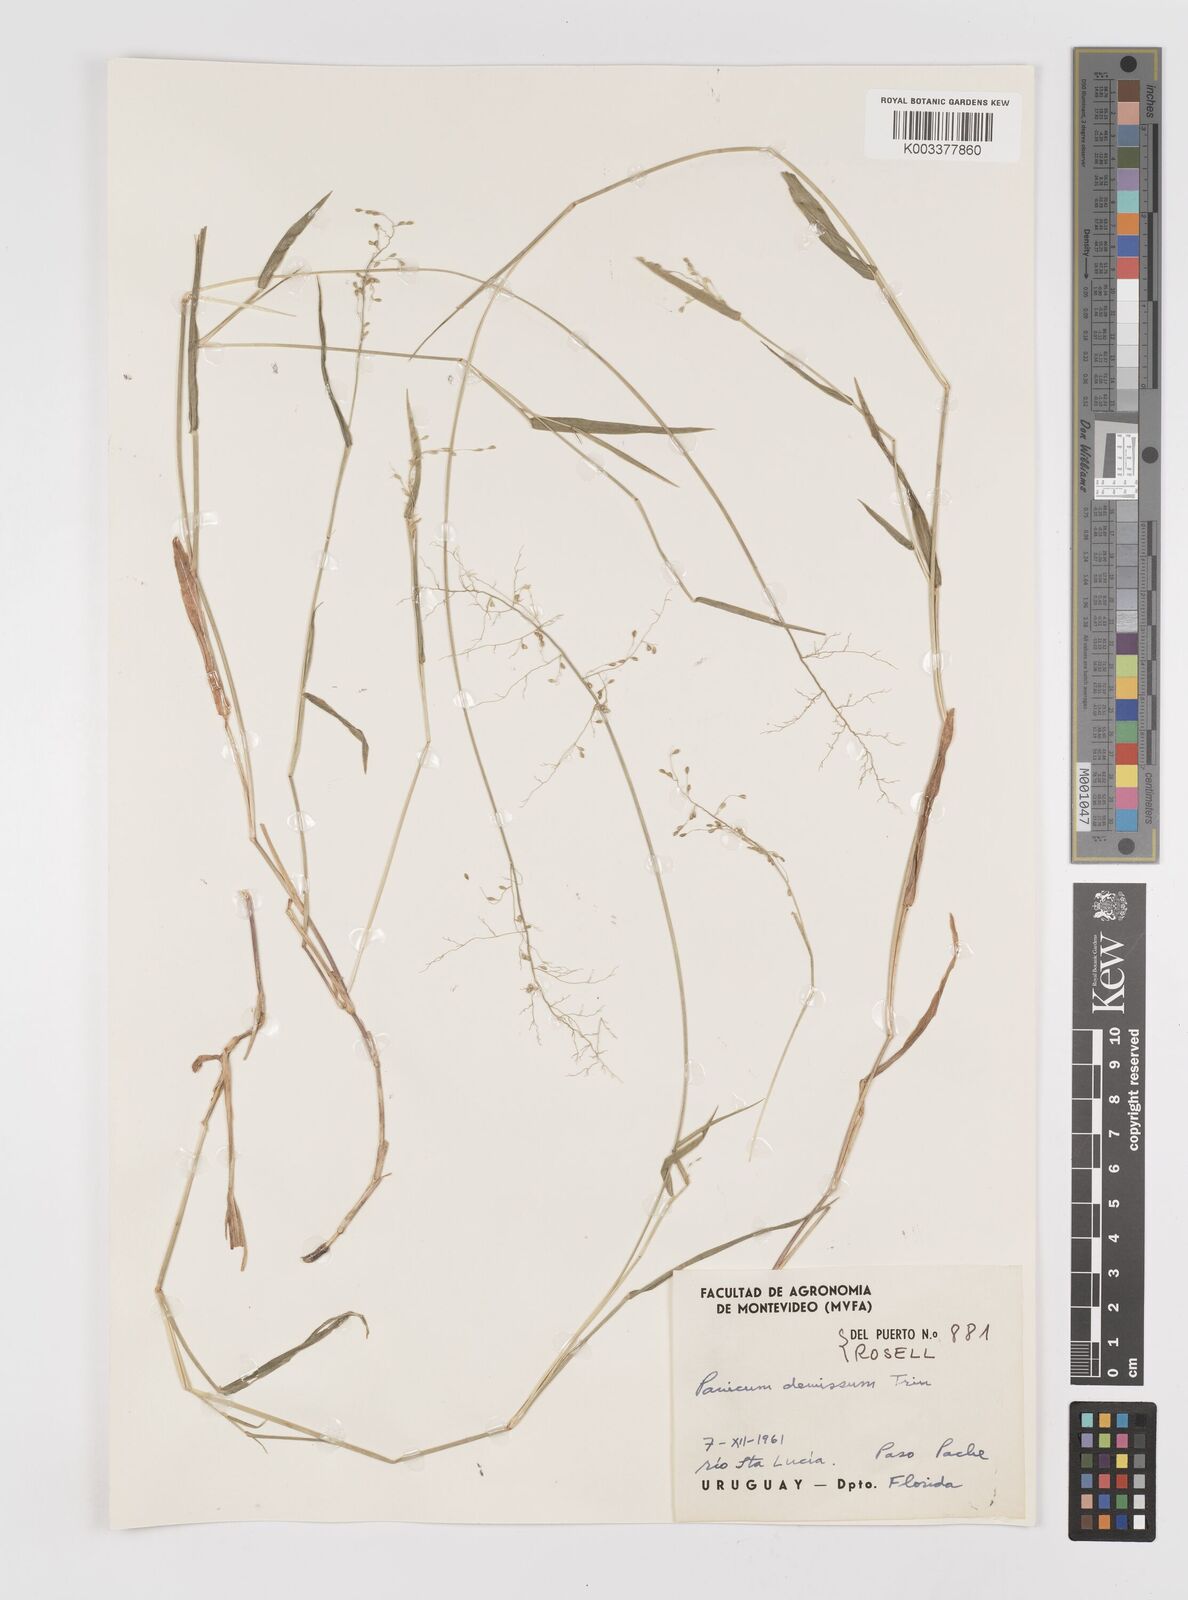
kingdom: Plantae
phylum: Tracheophyta
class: Liliopsida
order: Poales
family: Poaceae
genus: Dichanthelium
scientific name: Dichanthelium stigmosum
